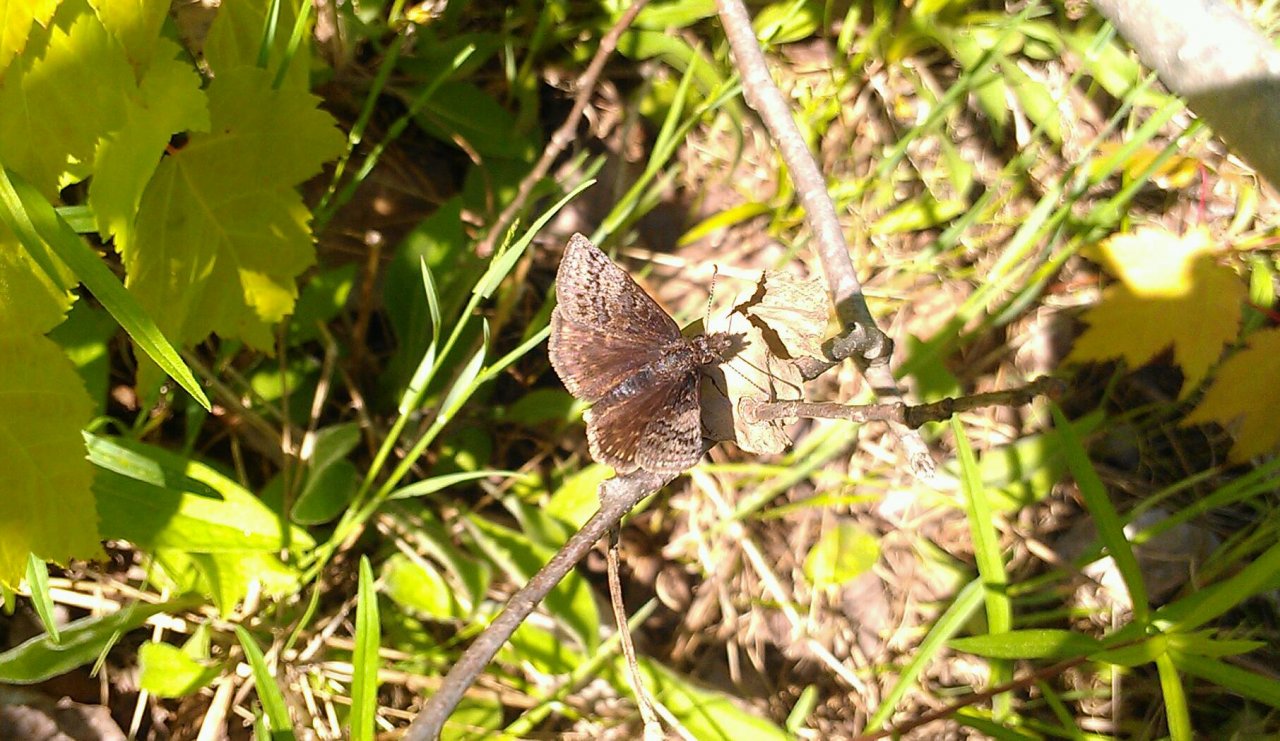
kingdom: Animalia
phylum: Arthropoda
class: Insecta
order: Lepidoptera
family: Hesperiidae
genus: Erynnis
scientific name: Erynnis icelus
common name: Dreamy Duskywing
